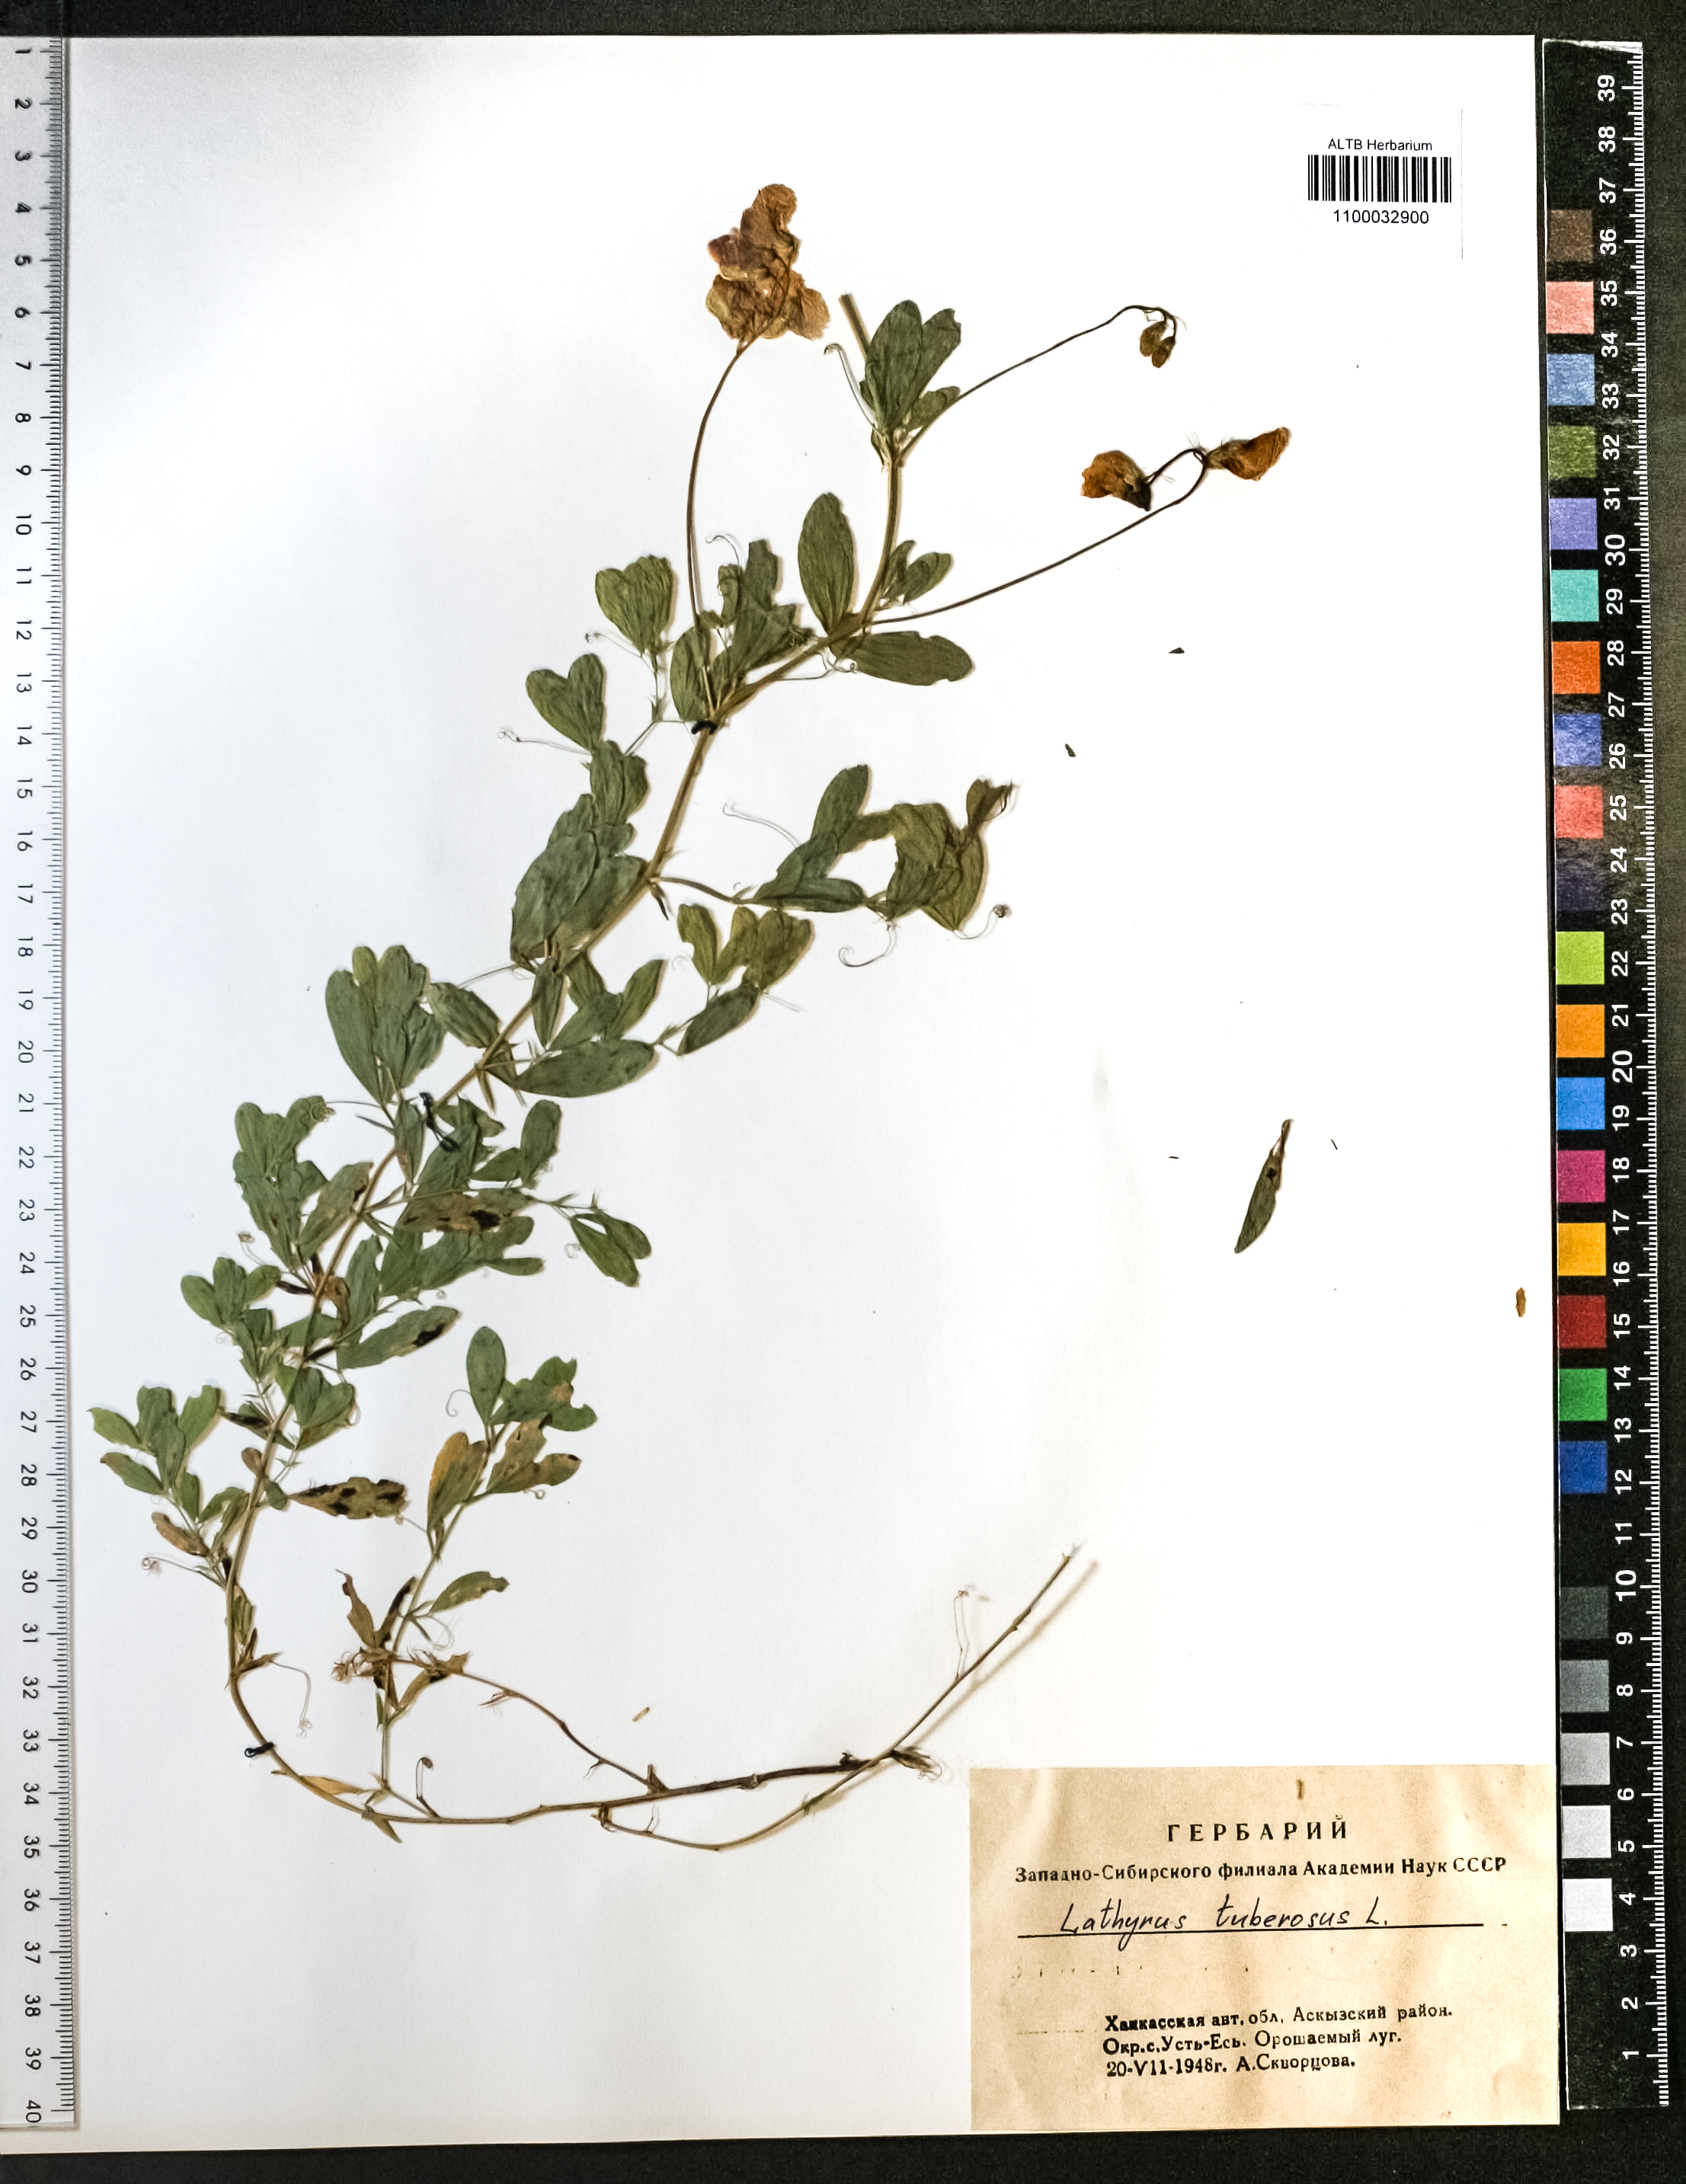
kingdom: Plantae
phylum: Tracheophyta
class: Magnoliopsida
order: Fabales
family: Fabaceae
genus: Lathyrus
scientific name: Lathyrus tuberosus
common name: Tuberous pea
